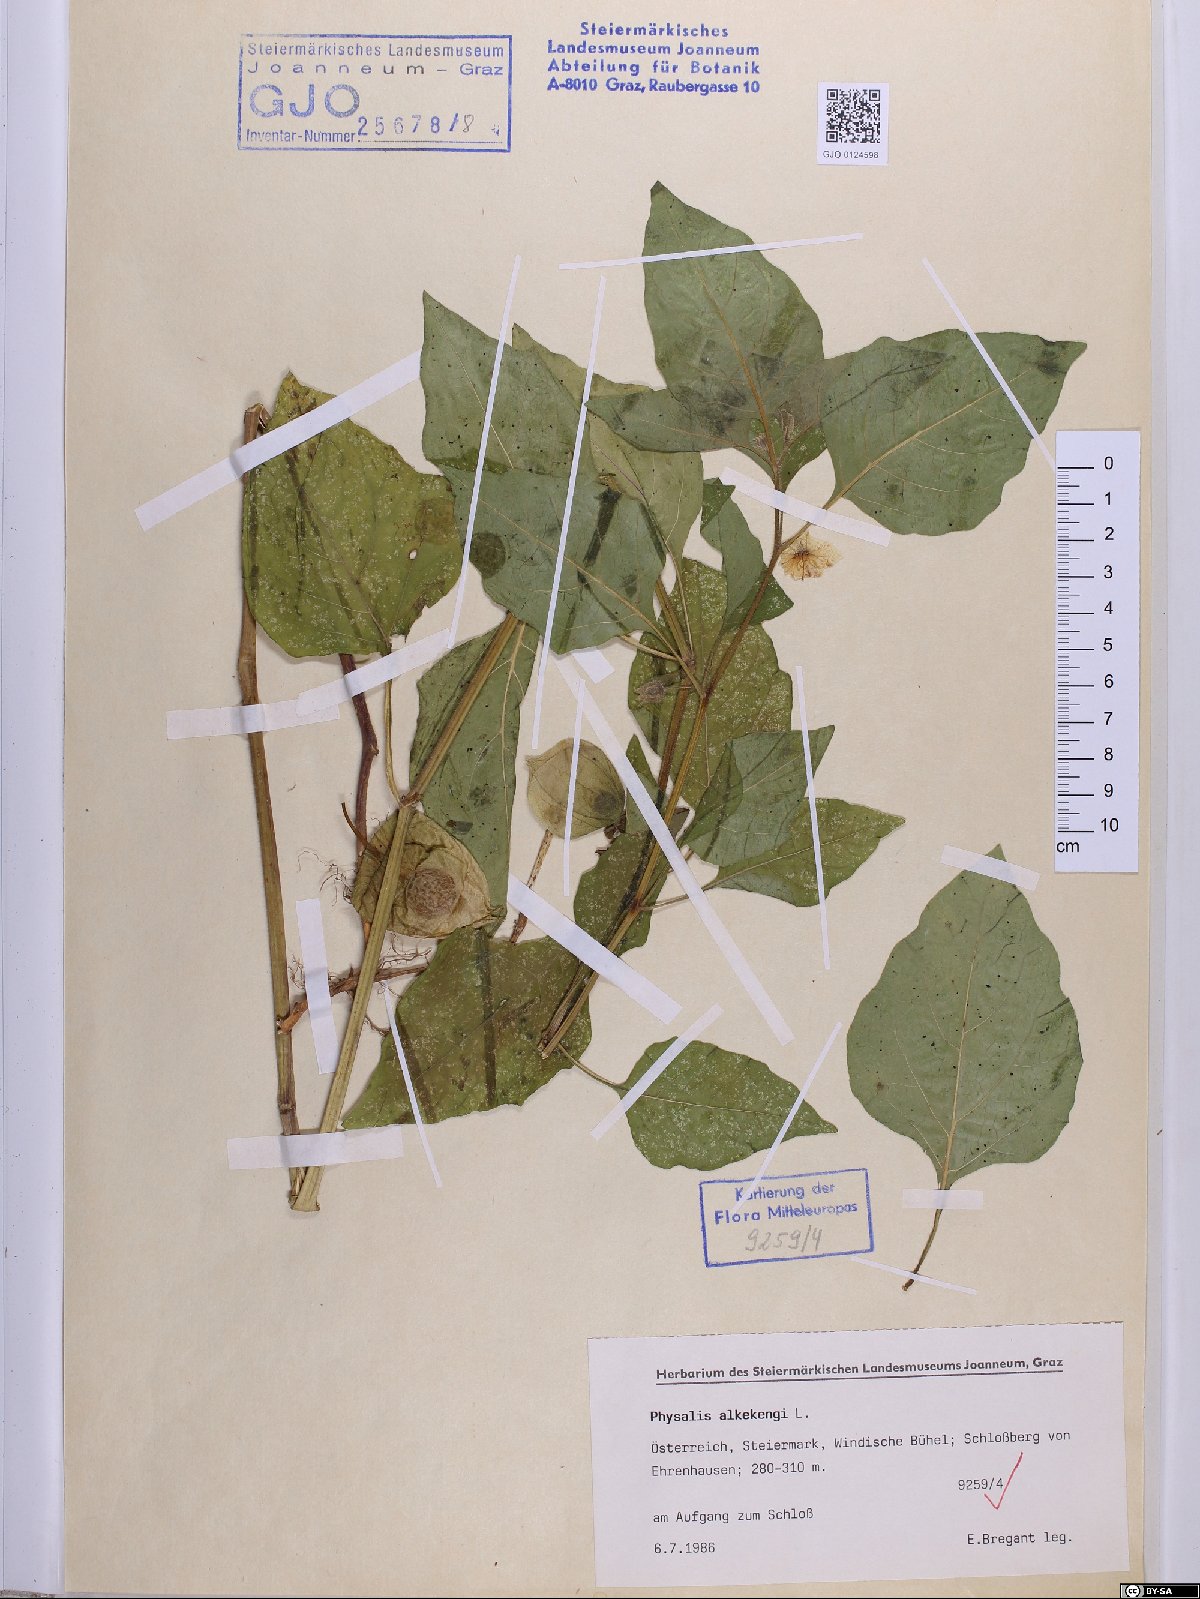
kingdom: Plantae
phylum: Tracheophyta
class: Magnoliopsida
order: Solanales
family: Solanaceae
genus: Alkekengi
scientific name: Alkekengi officinarum
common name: Japanese-lantern
